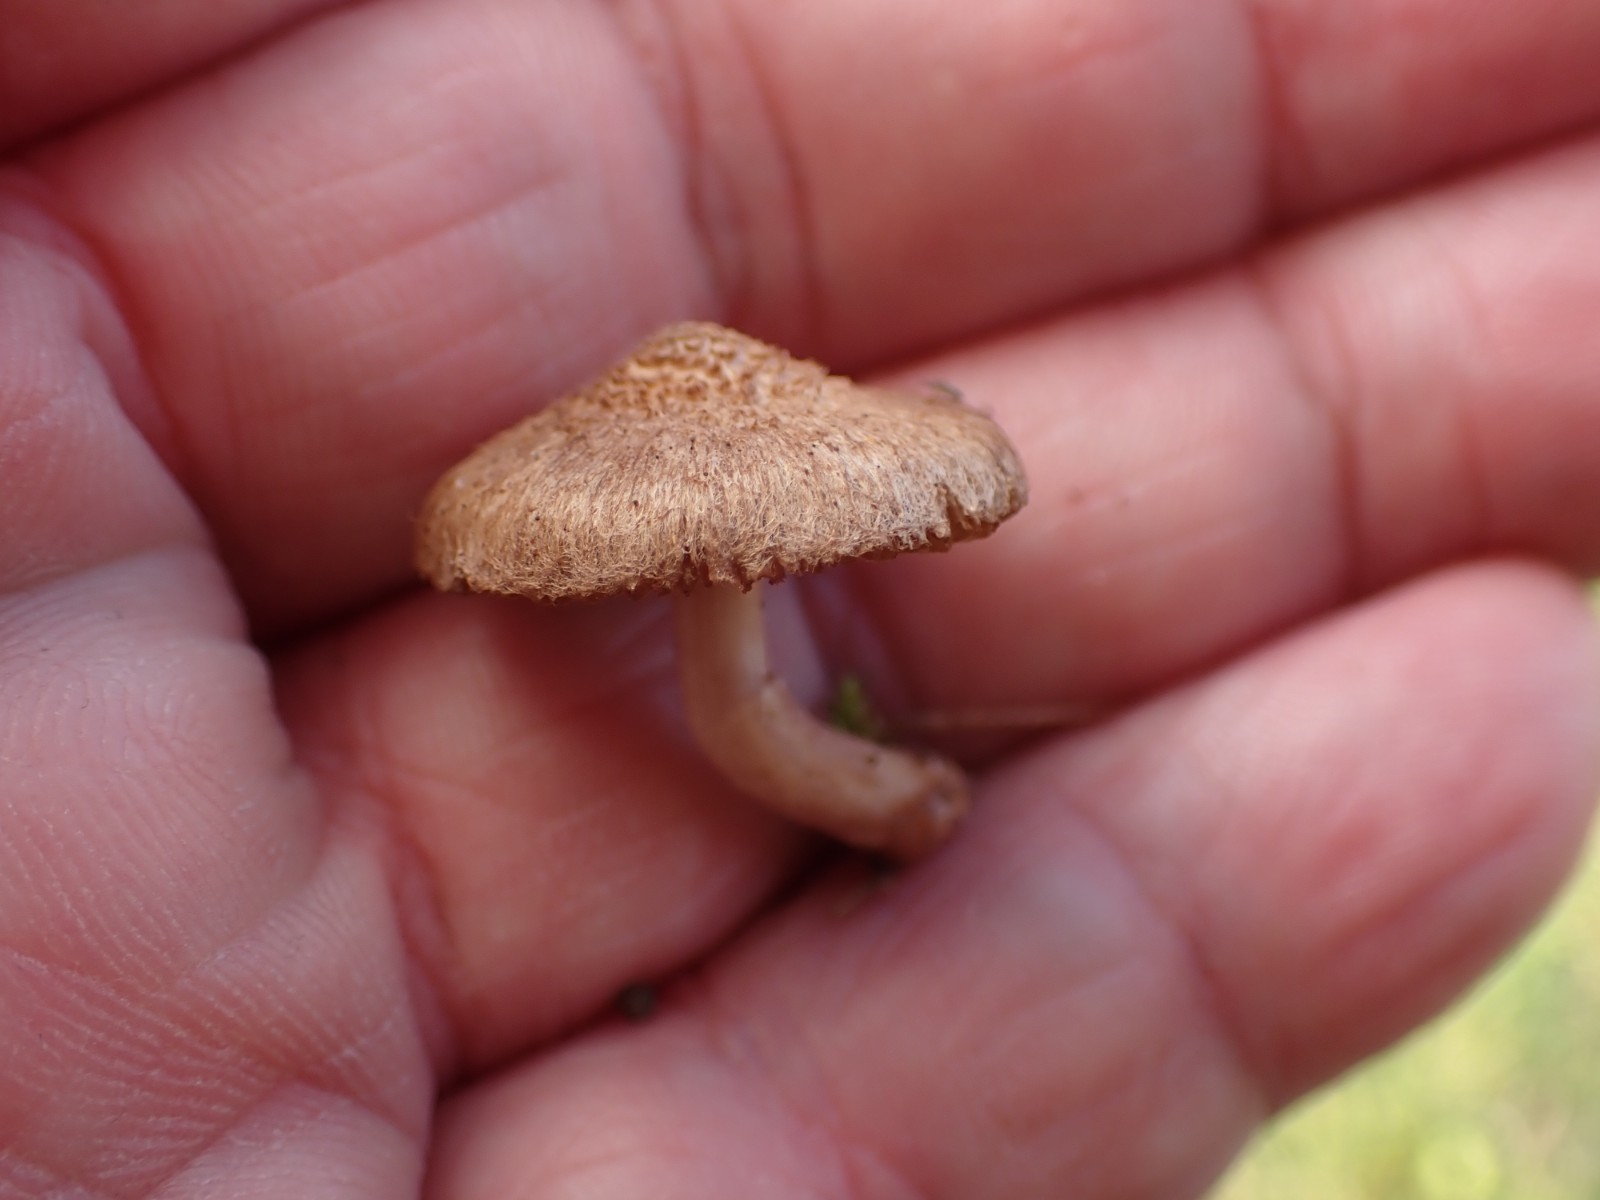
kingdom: Fungi
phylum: Basidiomycota
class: Agaricomycetes
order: Agaricales
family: Inocybaceae
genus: Inocybe
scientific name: Inocybe
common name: trævlhat
